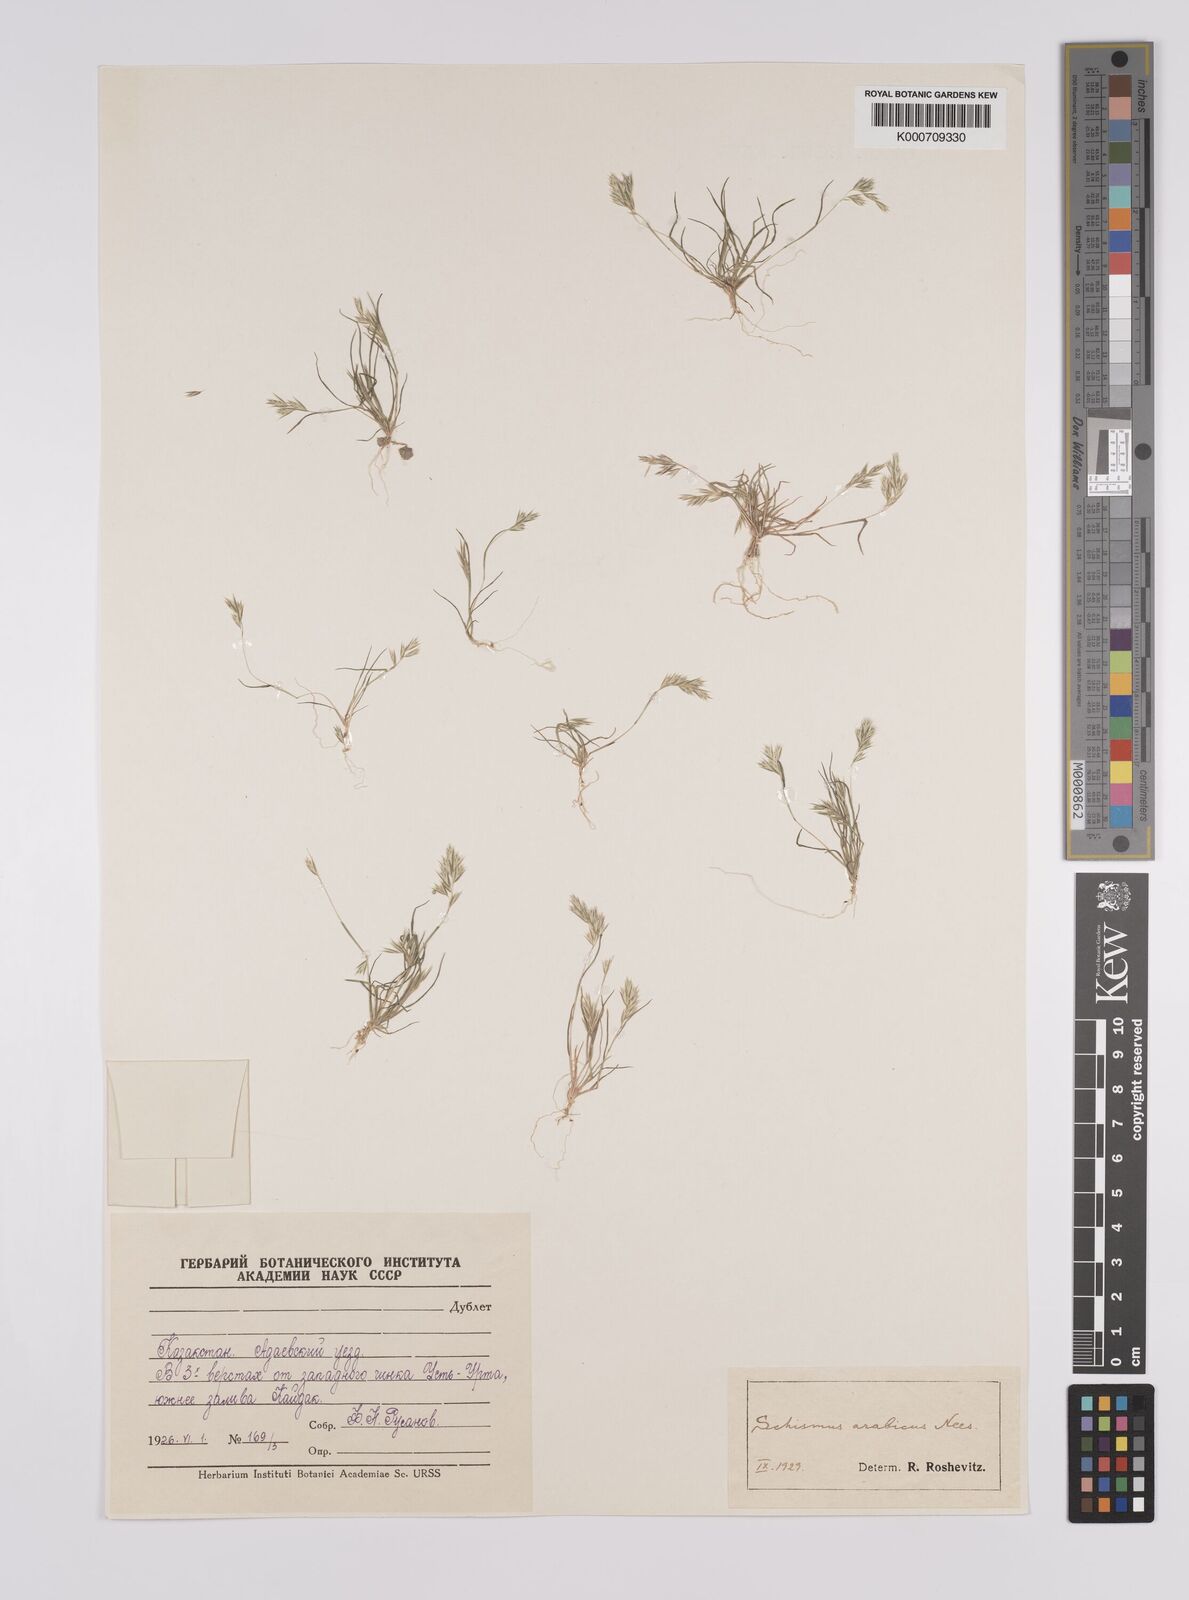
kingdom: Plantae
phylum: Tracheophyta
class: Liliopsida
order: Poales
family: Poaceae
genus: Schismus
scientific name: Schismus arabicus
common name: Arabian schismus
